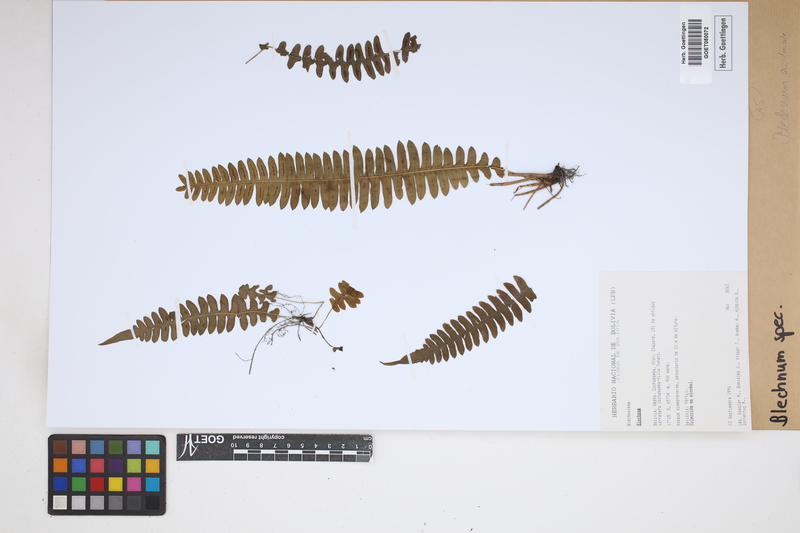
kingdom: Plantae
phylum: Tracheophyta
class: Polypodiopsida
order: Polypodiales
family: Blechnaceae
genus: Blechnum
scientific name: Blechnum
